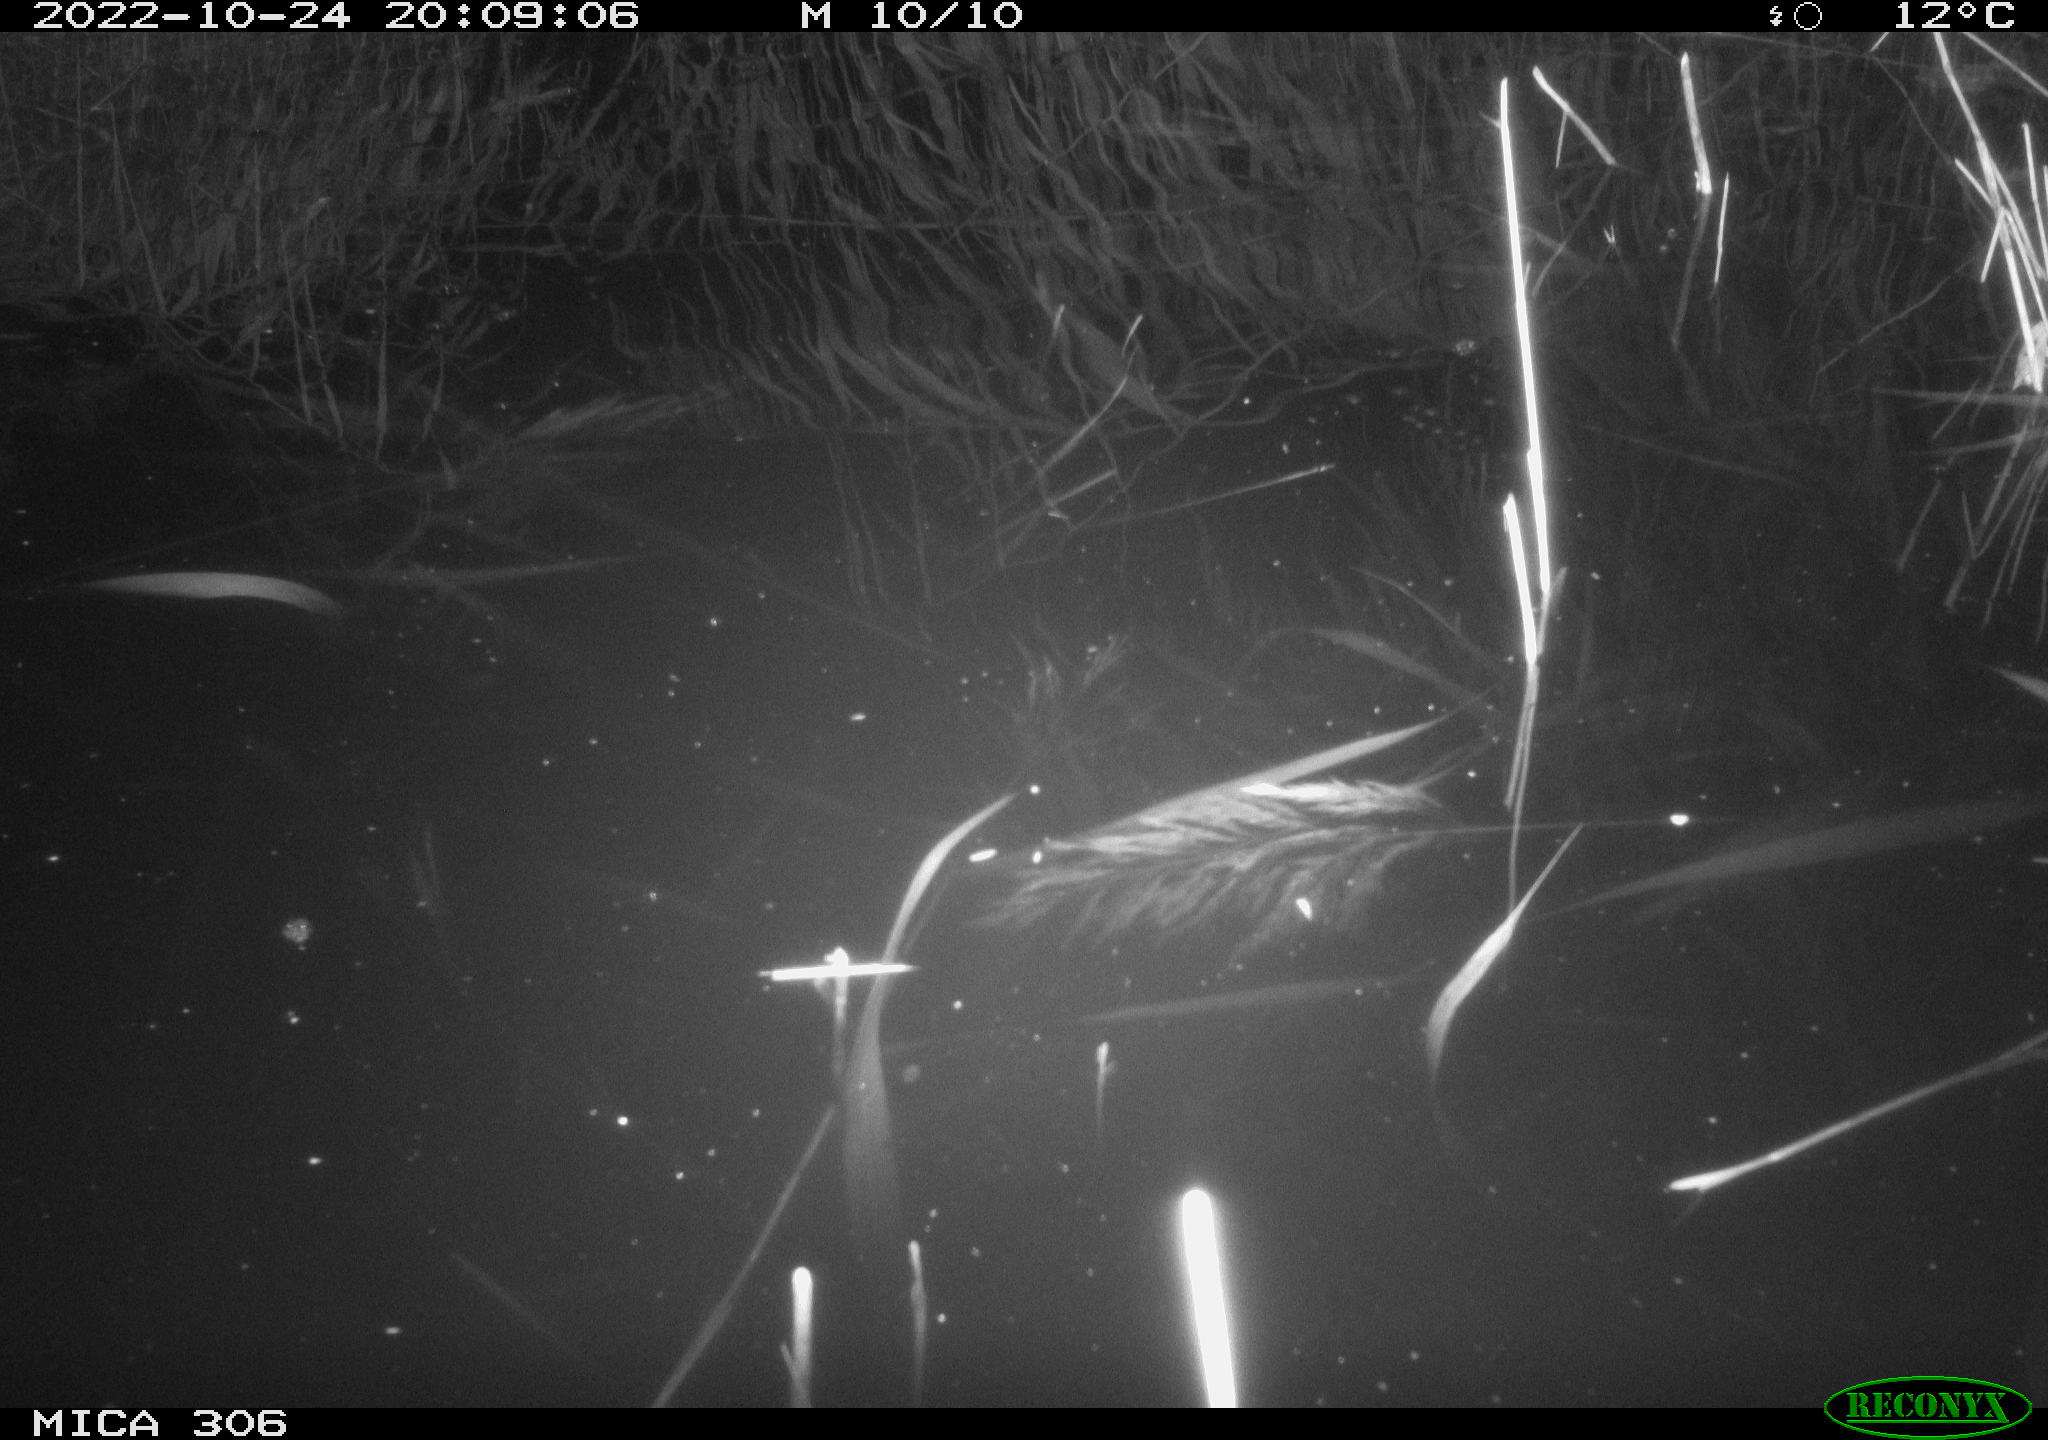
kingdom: Animalia
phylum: Chordata
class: Mammalia
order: Rodentia
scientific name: Rodentia
